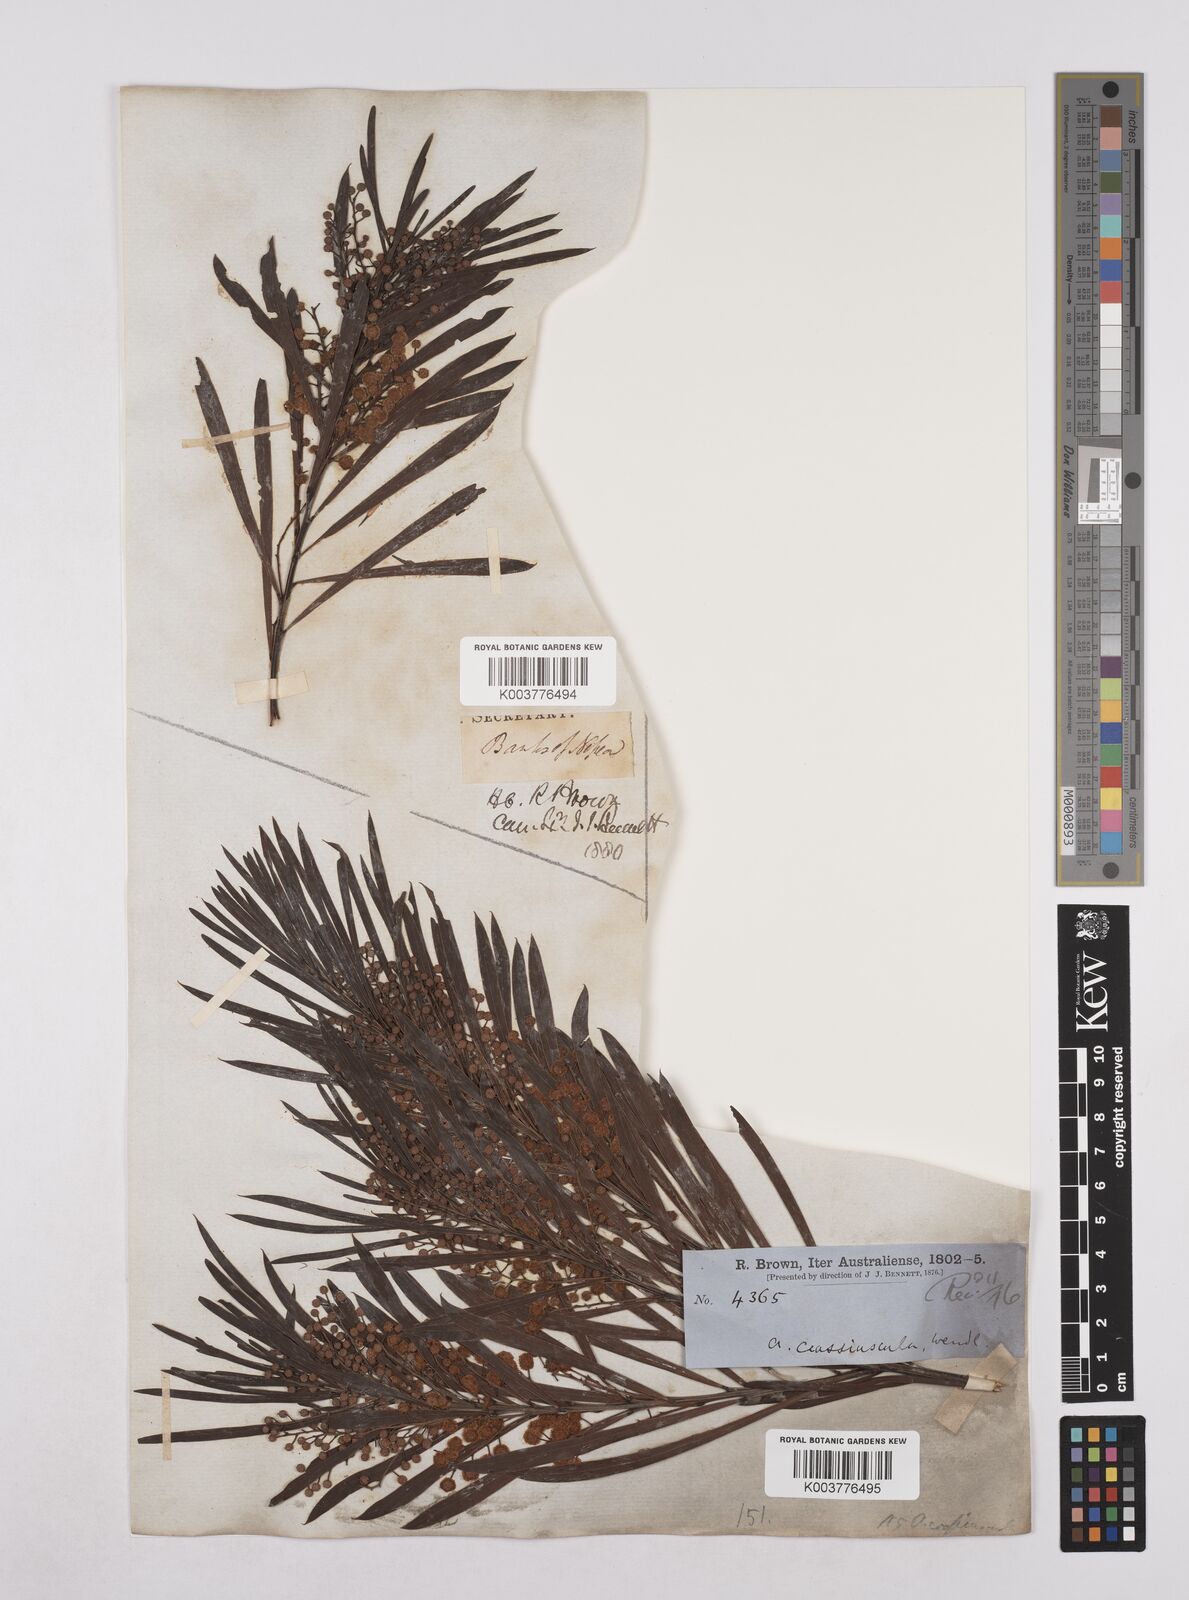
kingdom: Plantae
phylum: Tracheophyta
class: Magnoliopsida
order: Fabales
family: Fabaceae
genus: Acacia
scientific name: Acacia flocktoniae
